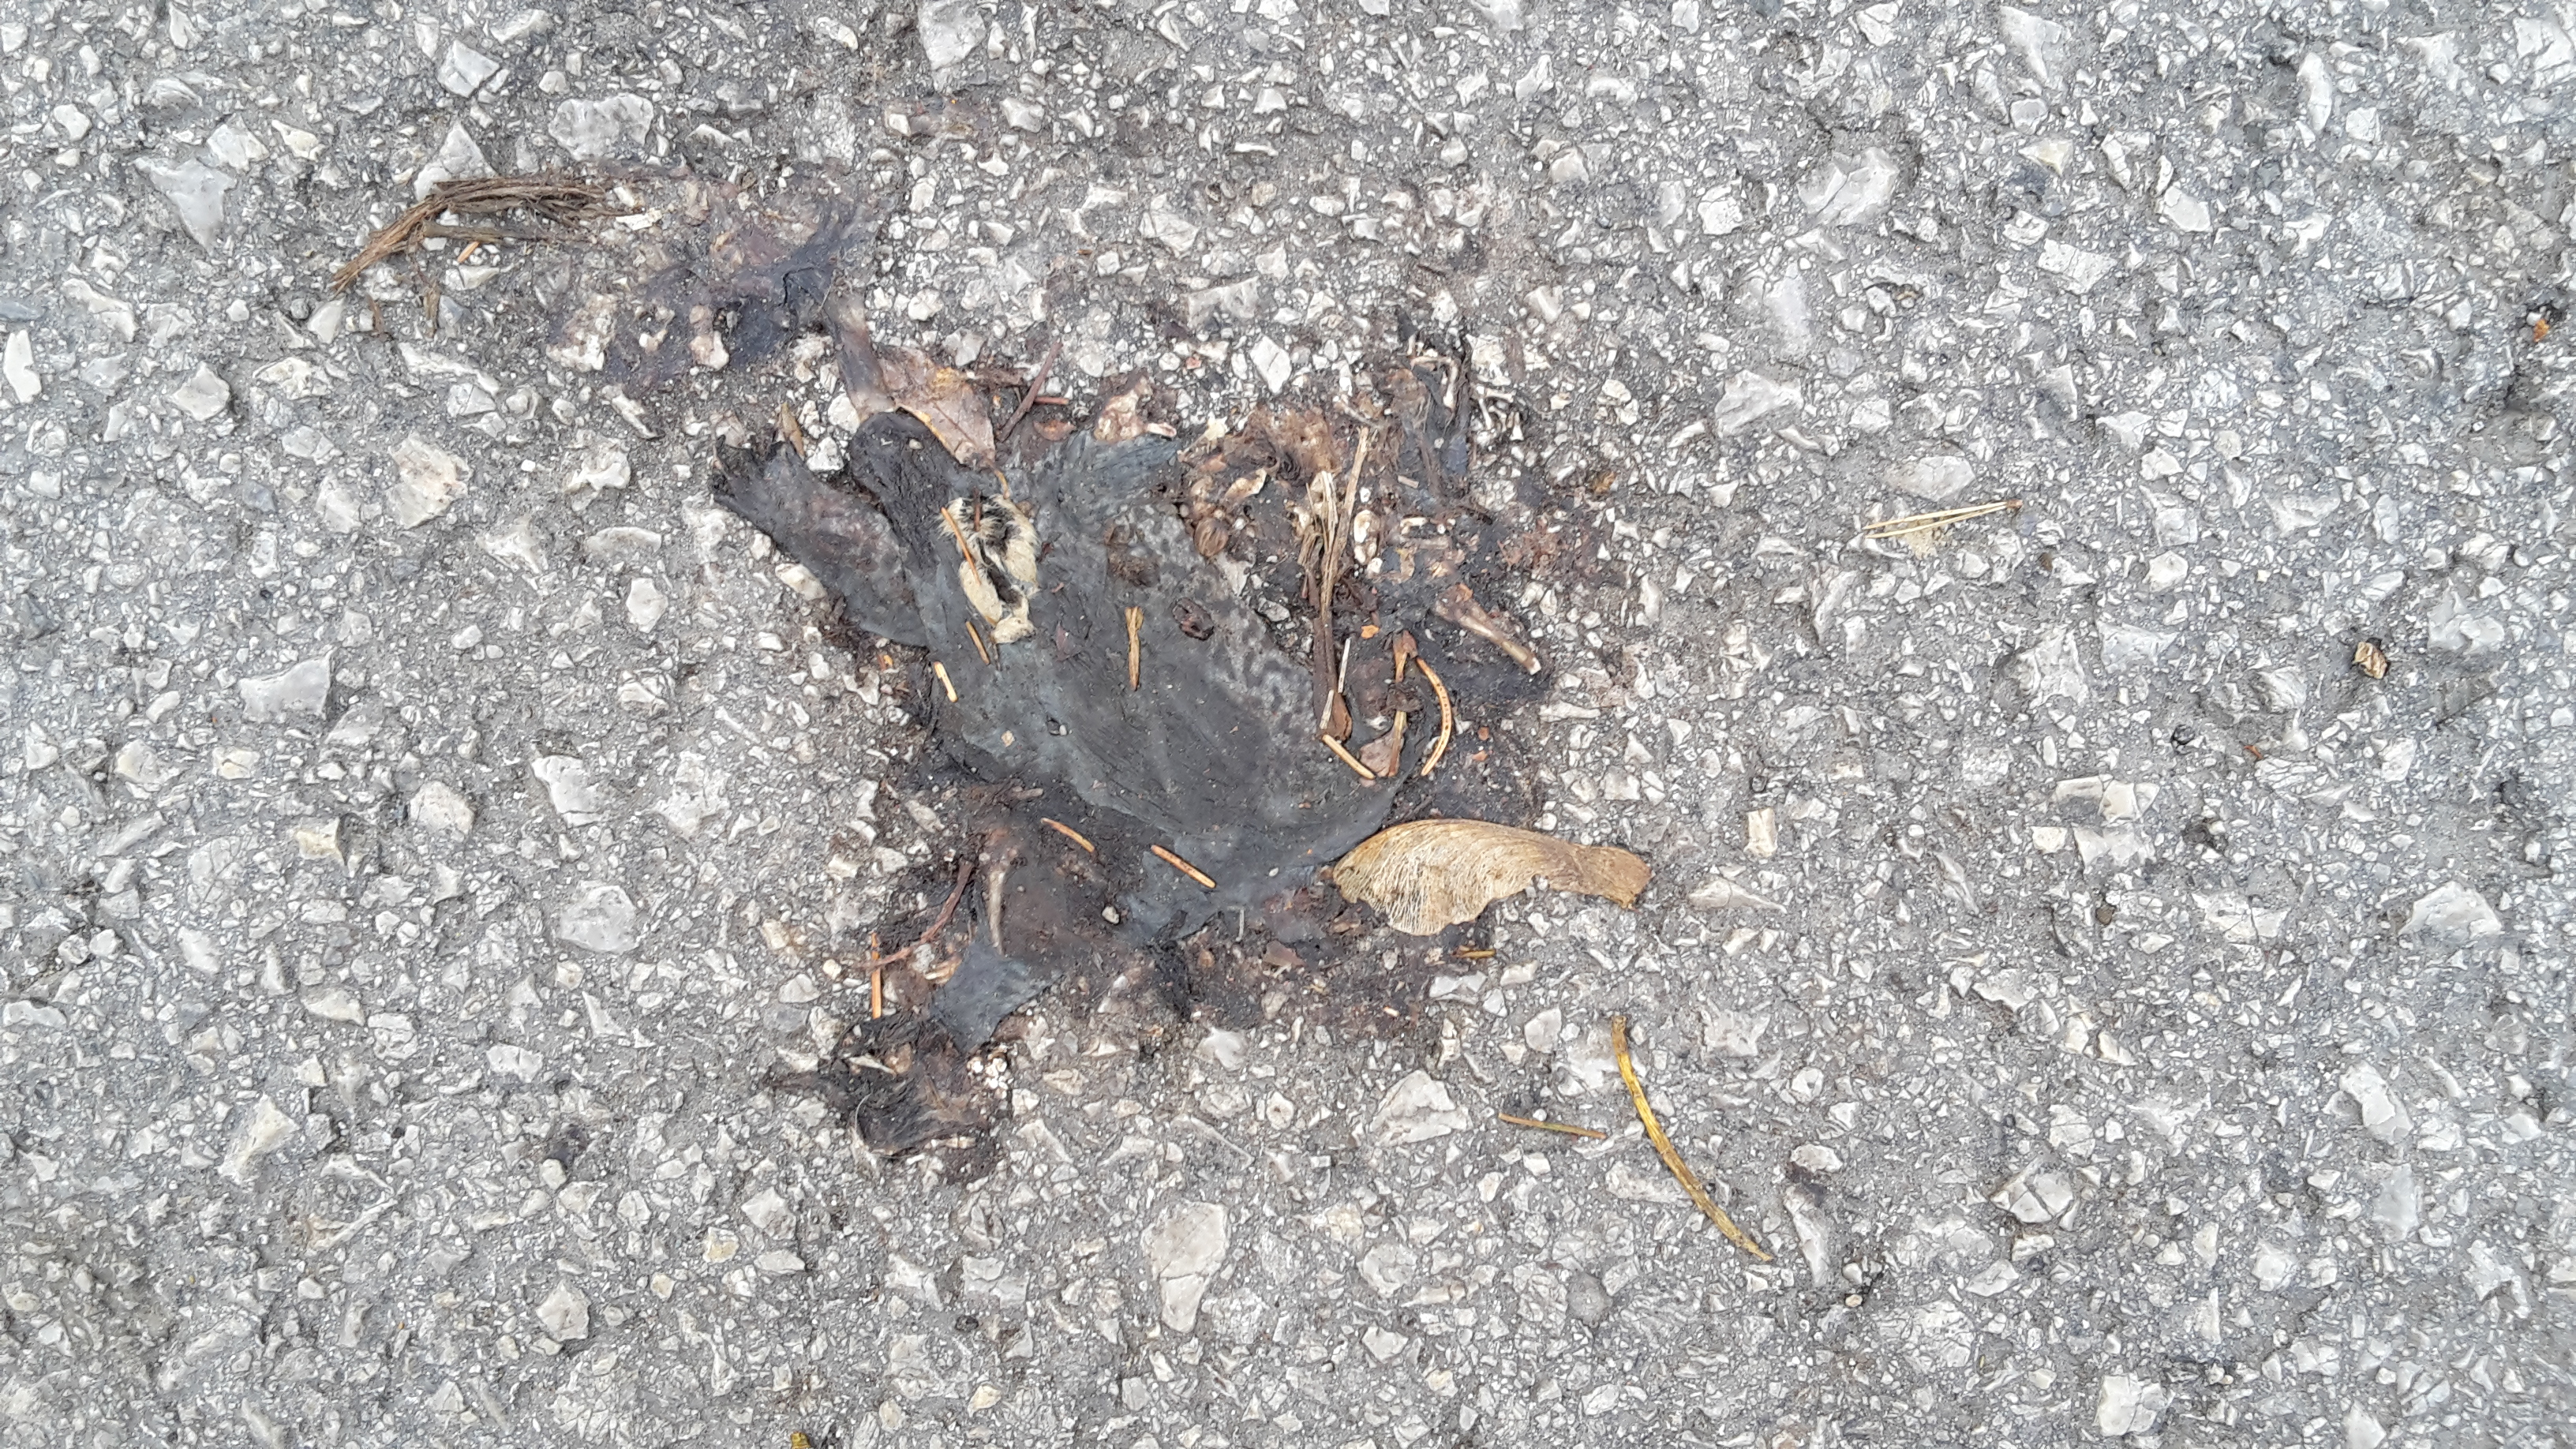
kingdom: Animalia
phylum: Chordata
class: Amphibia
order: Anura
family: Bufonidae
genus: Bufo
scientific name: Bufo bufo
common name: Common toad
